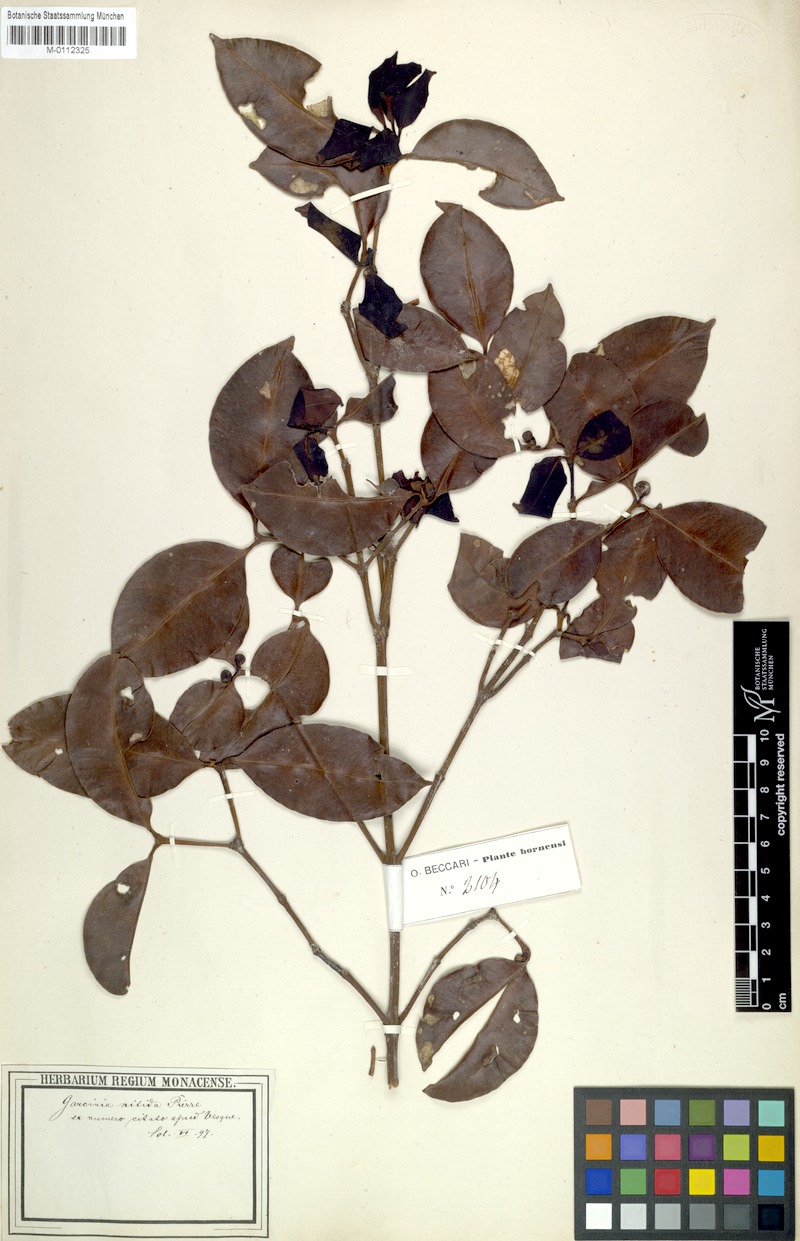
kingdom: Plantae
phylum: Tracheophyta
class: Magnoliopsida
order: Malpighiales
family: Clusiaceae
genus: Garcinia
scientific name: Garcinia nitida
